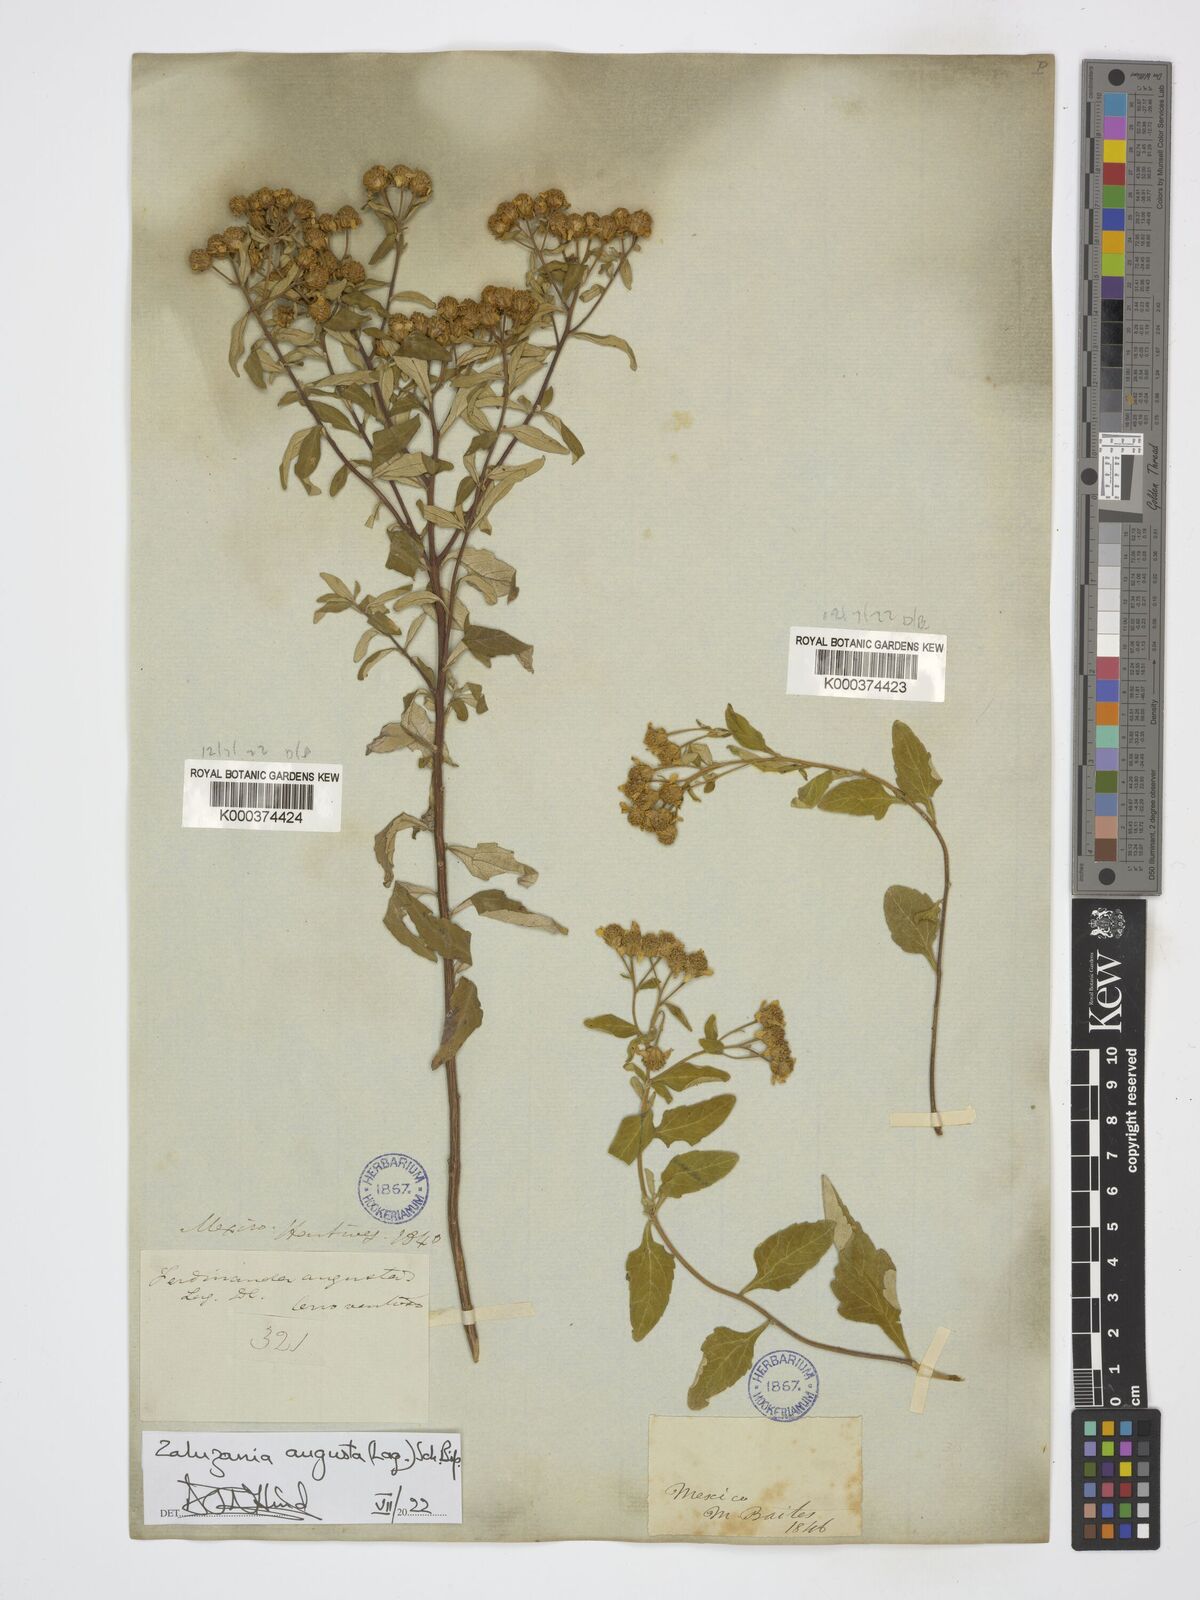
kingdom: Plantae
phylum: Tracheophyta
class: Magnoliopsida
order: Asterales
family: Asteraceae
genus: Zaluzania
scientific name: Zaluzania augusta
